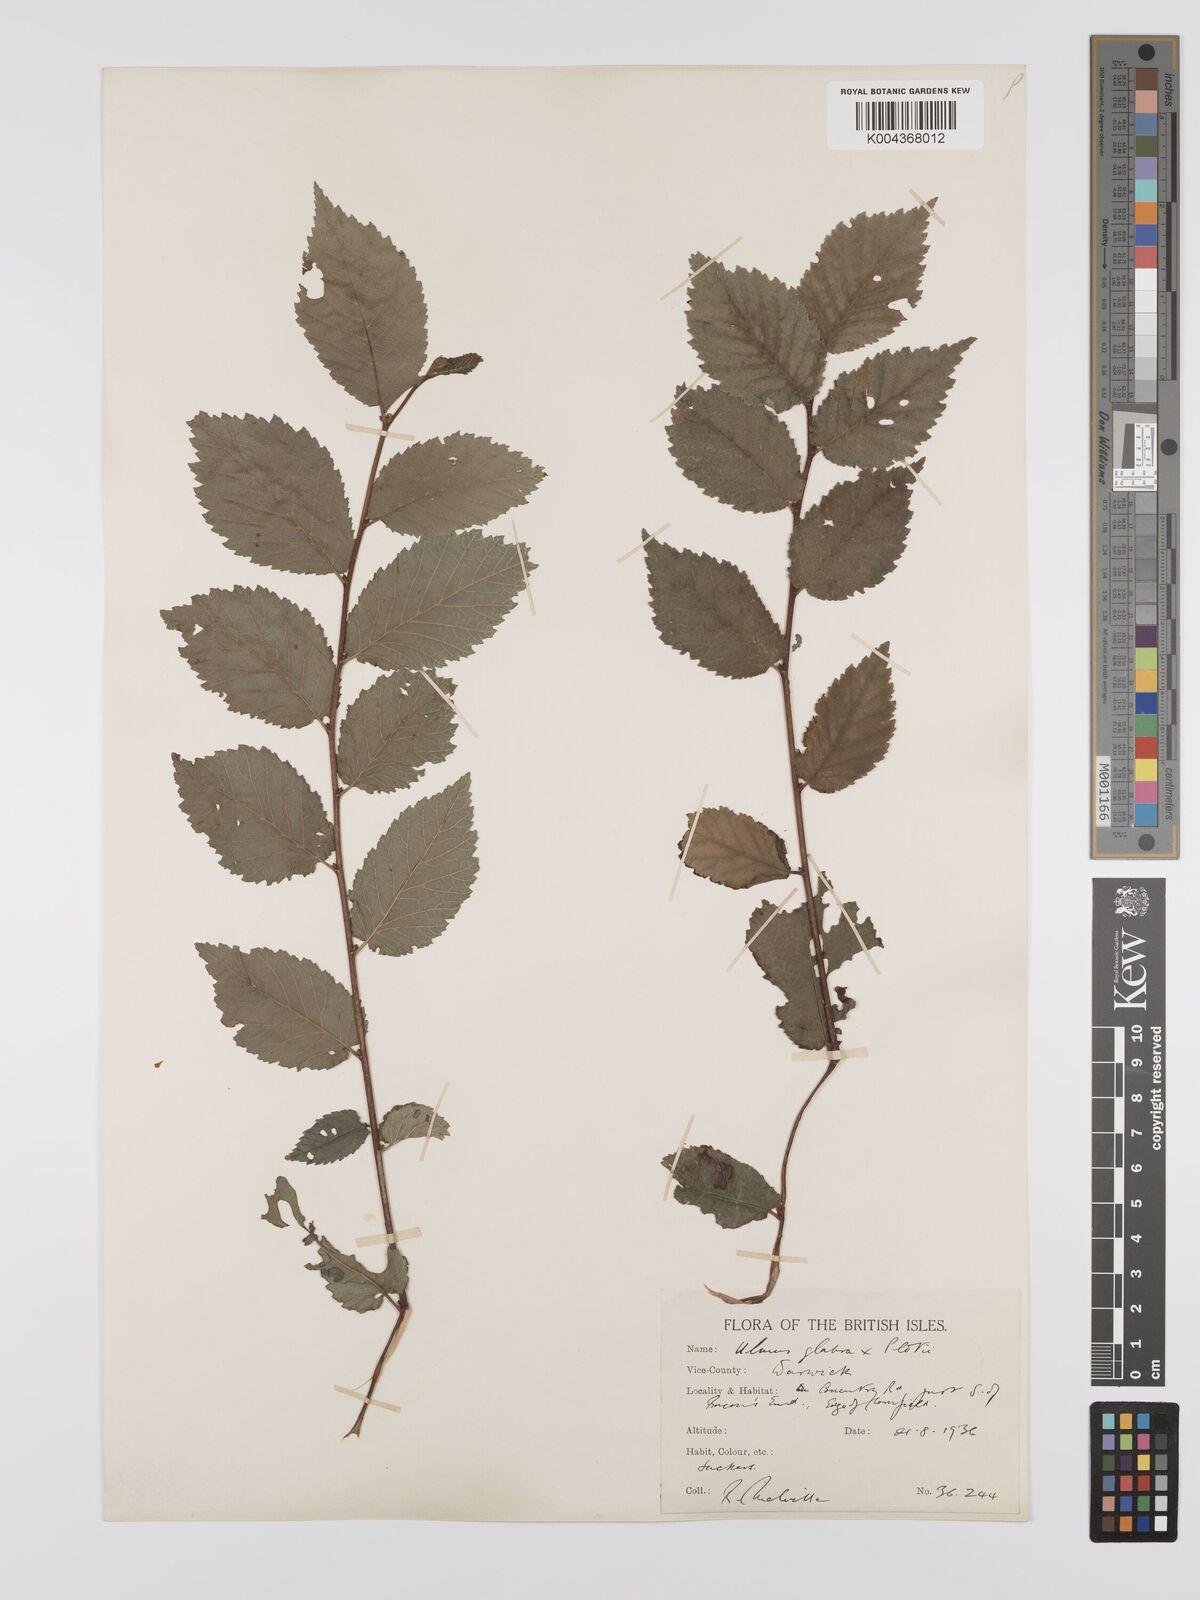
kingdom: Plantae
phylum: Tracheophyta
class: Magnoliopsida
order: Rosales
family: Ulmaceae
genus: Ulmus
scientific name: Ulmus
